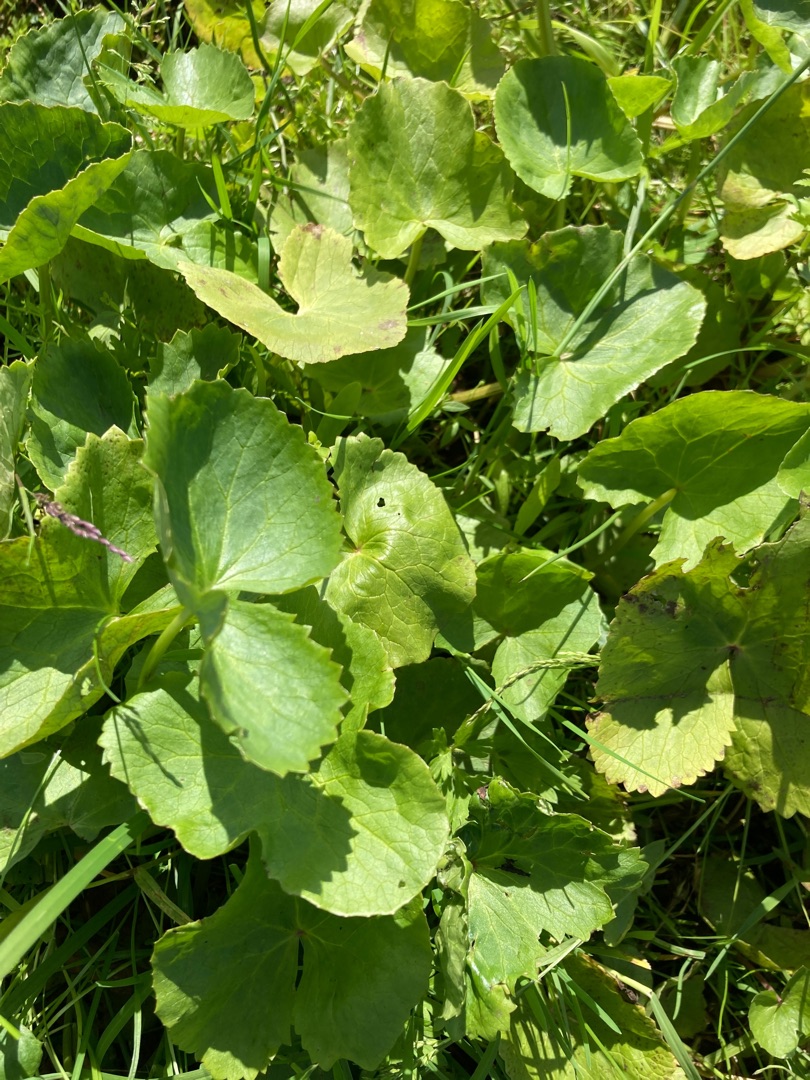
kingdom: Plantae
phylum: Tracheophyta
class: Magnoliopsida
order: Ranunculales
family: Ranunculaceae
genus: Caltha
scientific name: Caltha palustris
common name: Eng-kabbeleje
